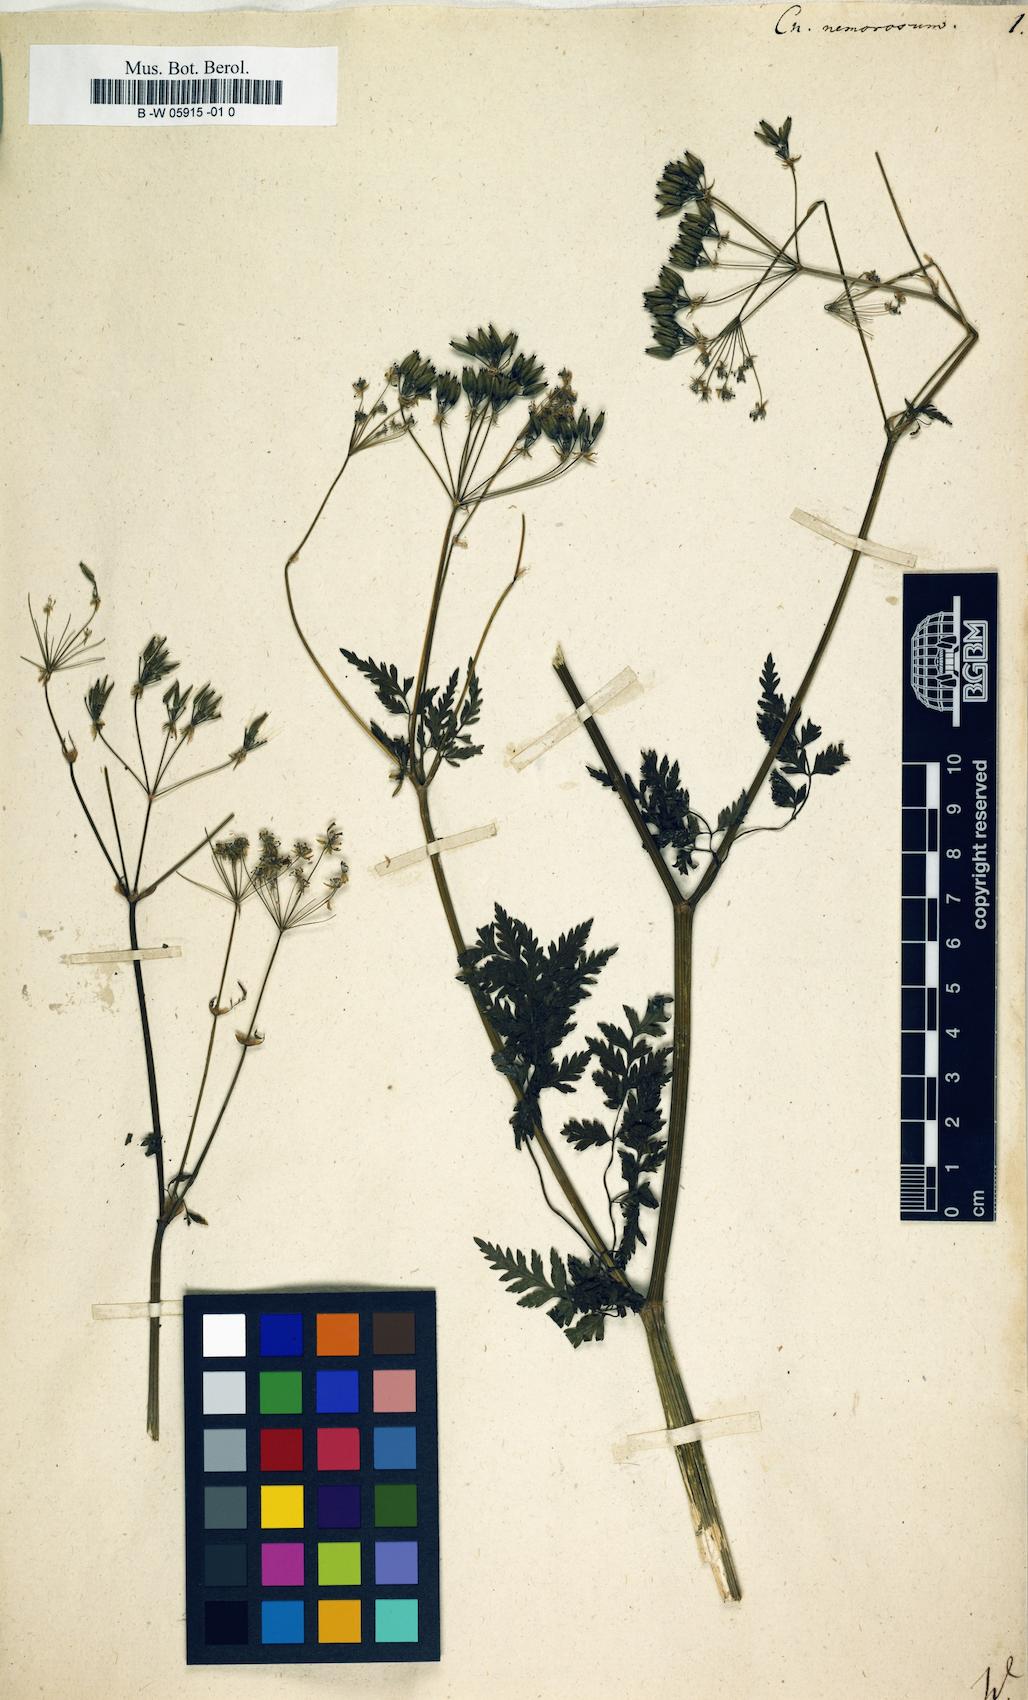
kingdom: Plantae
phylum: Tracheophyta
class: Magnoliopsida
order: Apiales
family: Apiaceae
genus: Anthriscus
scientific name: Anthriscus
